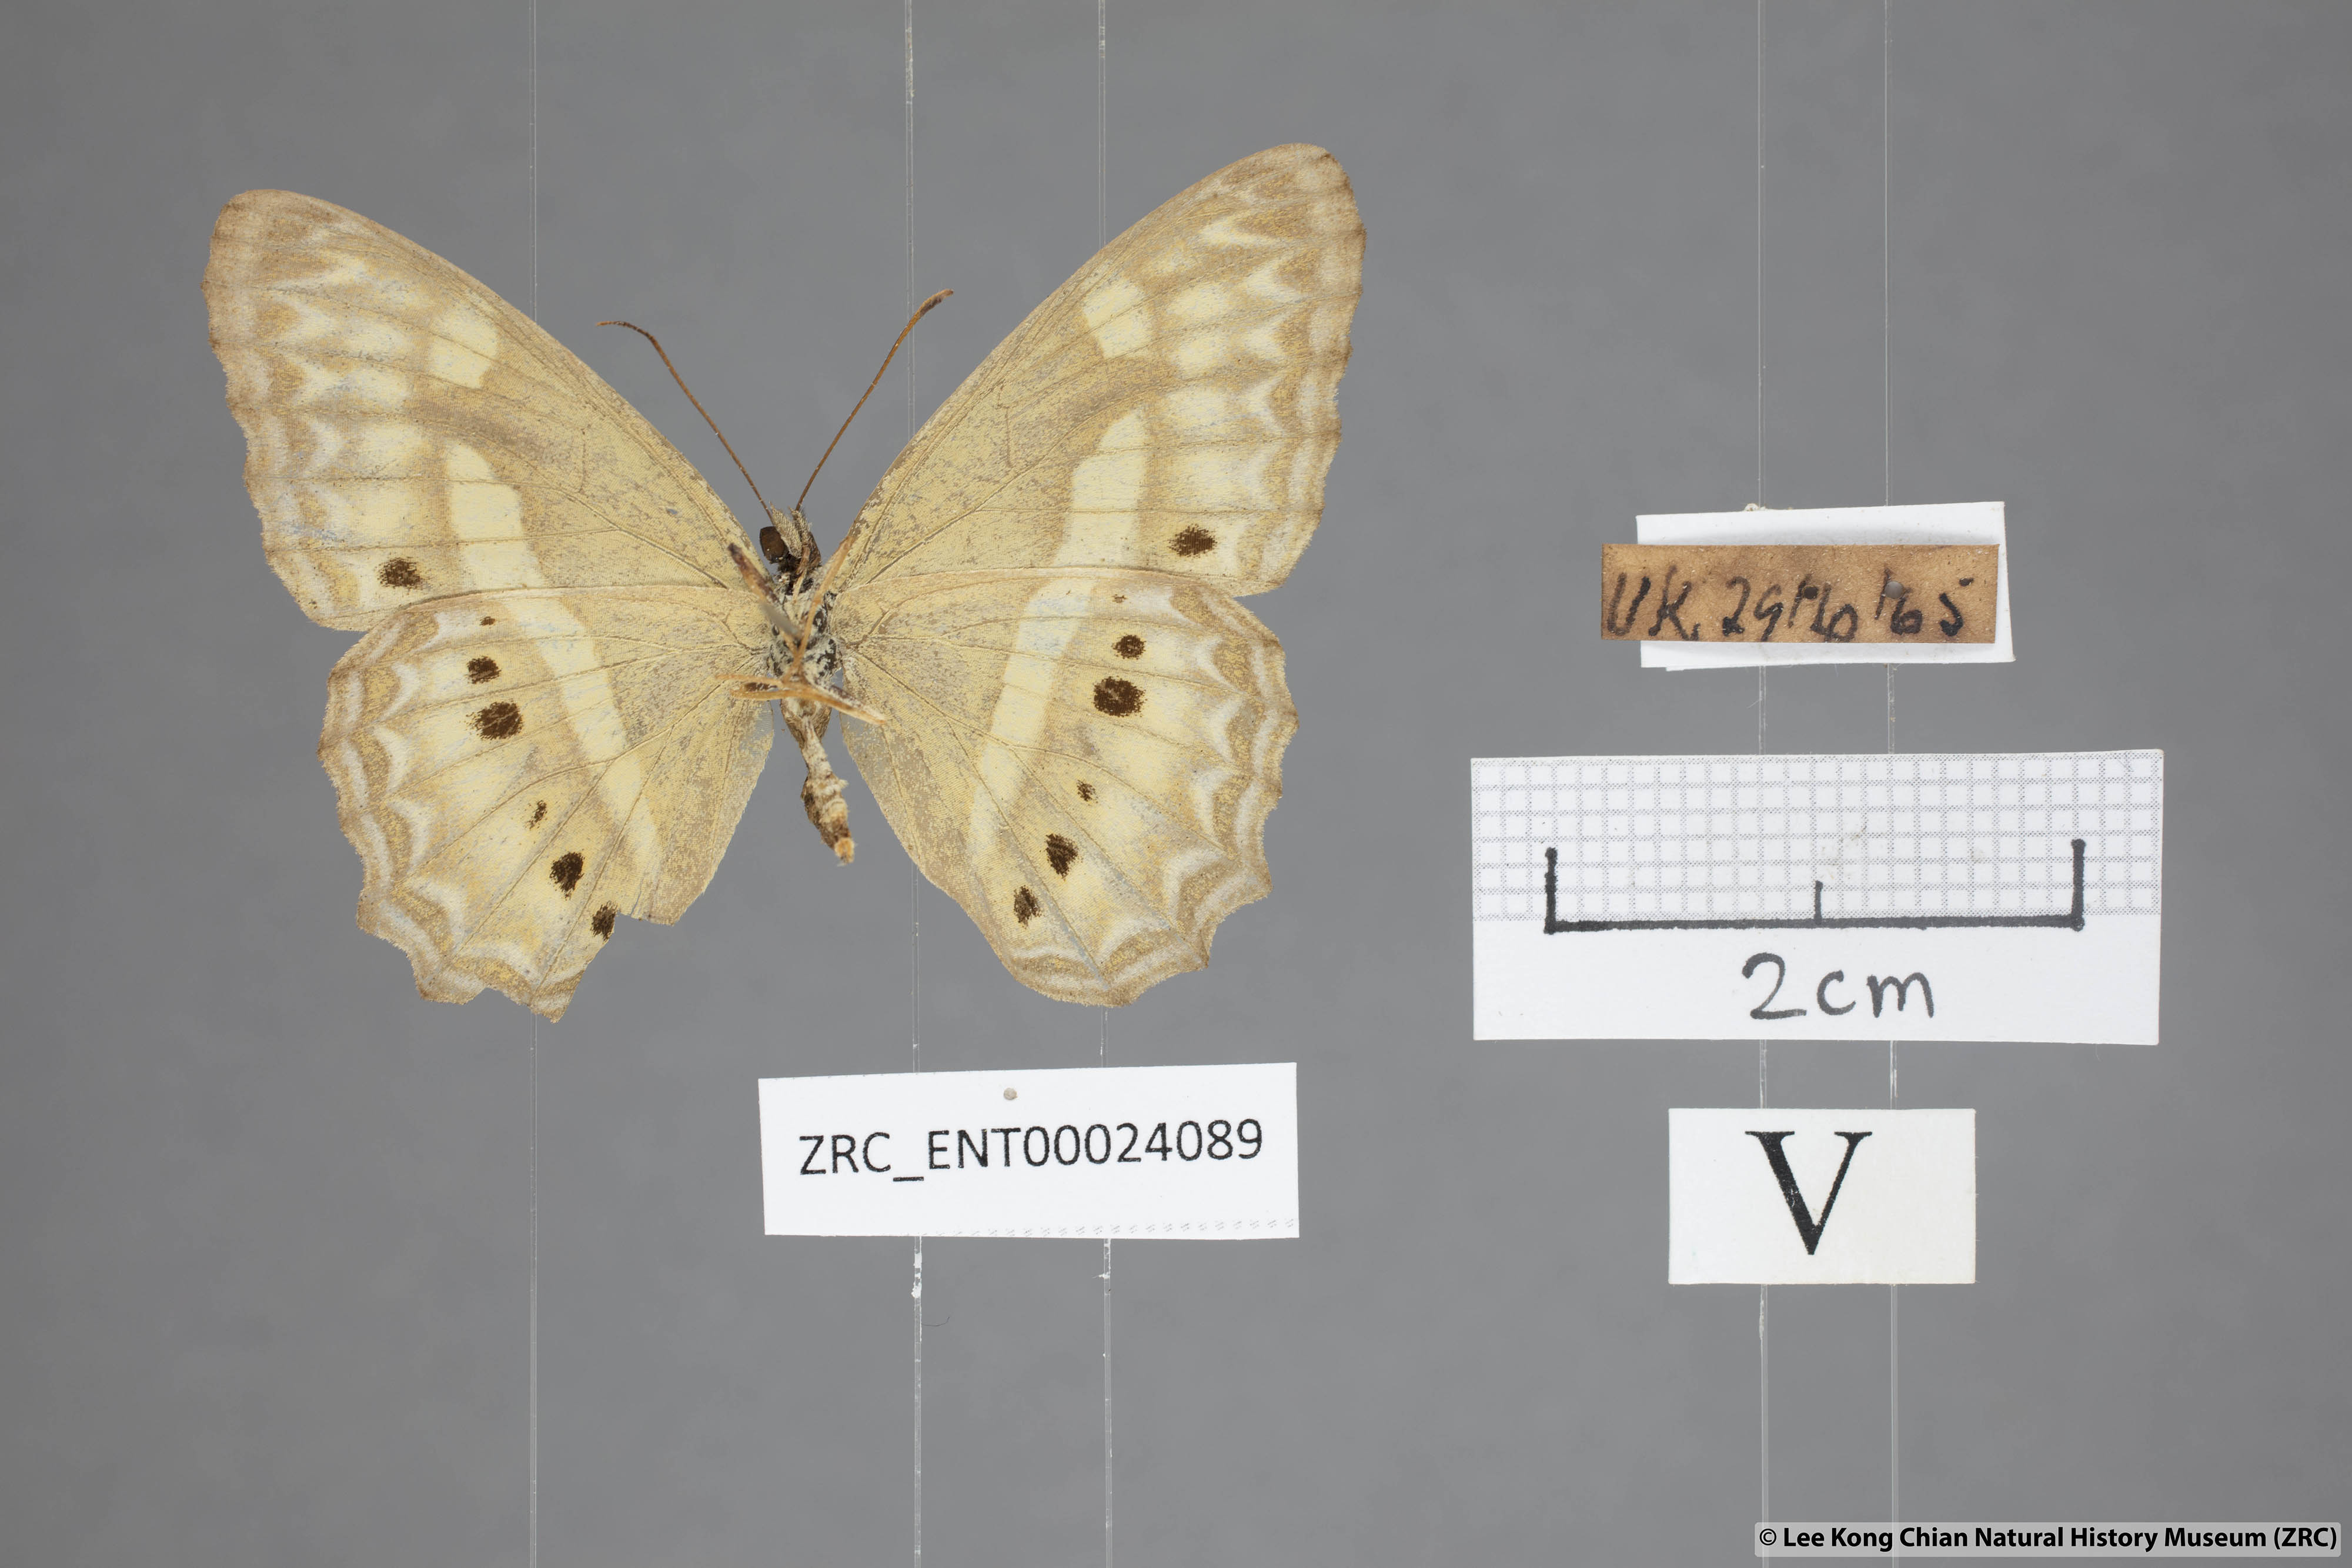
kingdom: Animalia
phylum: Arthropoda
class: Insecta
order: Lepidoptera
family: Nymphalidae
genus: Cirrochroa
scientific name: Cirrochroa fasciata
